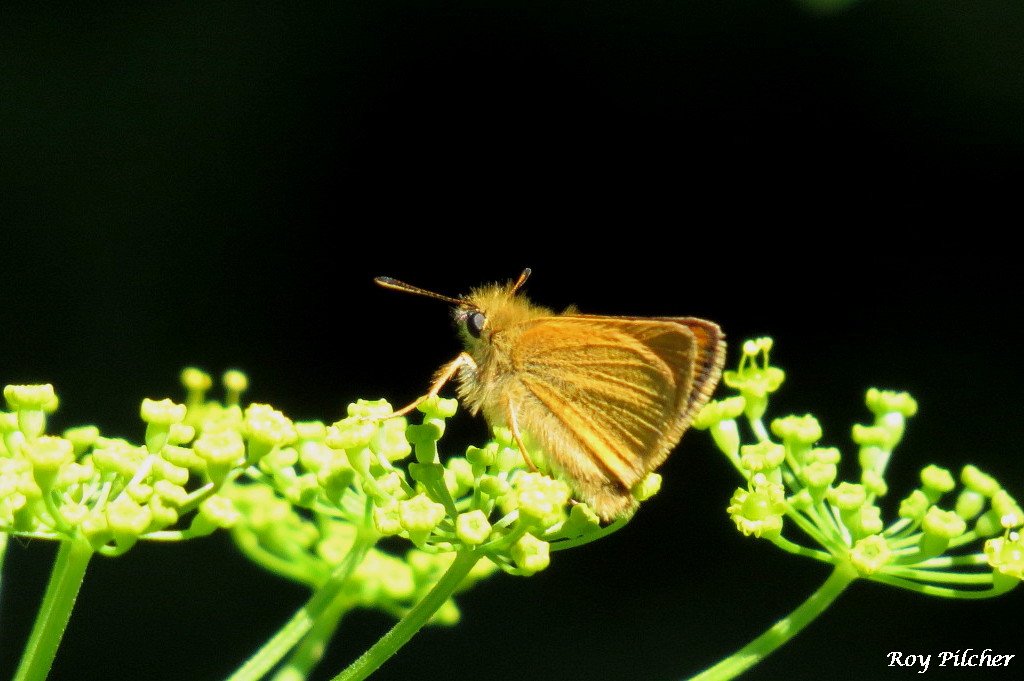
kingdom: Animalia
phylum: Arthropoda
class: Insecta
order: Lepidoptera
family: Hesperiidae
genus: Thymelicus
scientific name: Thymelicus lineola
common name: European Skipper
